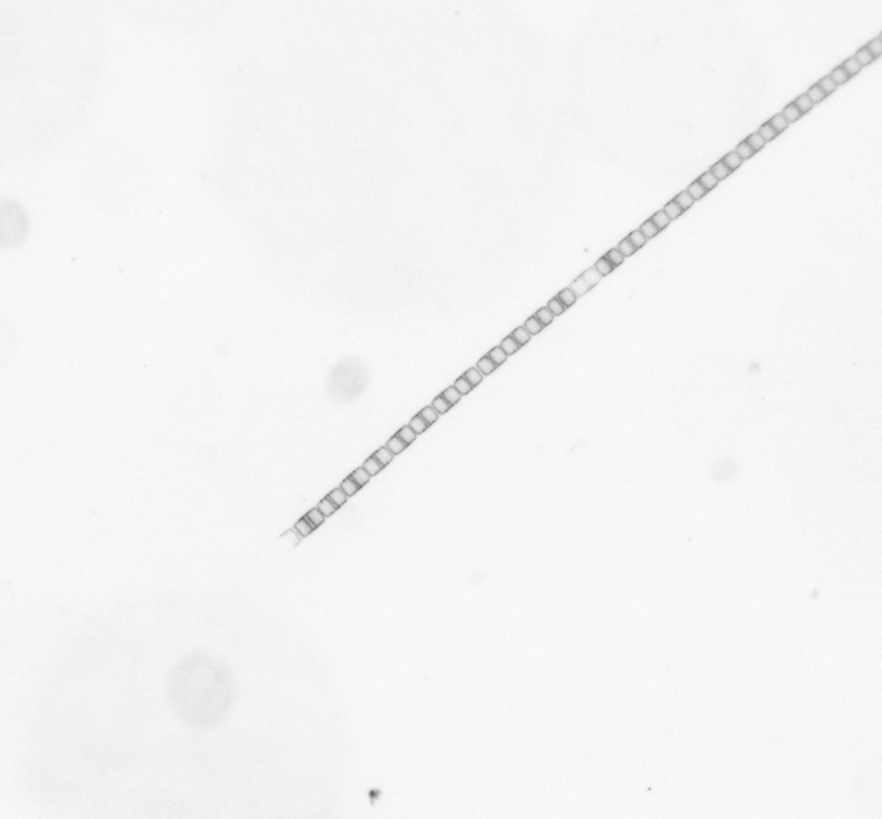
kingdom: Chromista
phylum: Ochrophyta
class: Bacillariophyceae
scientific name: Bacillariophyceae
